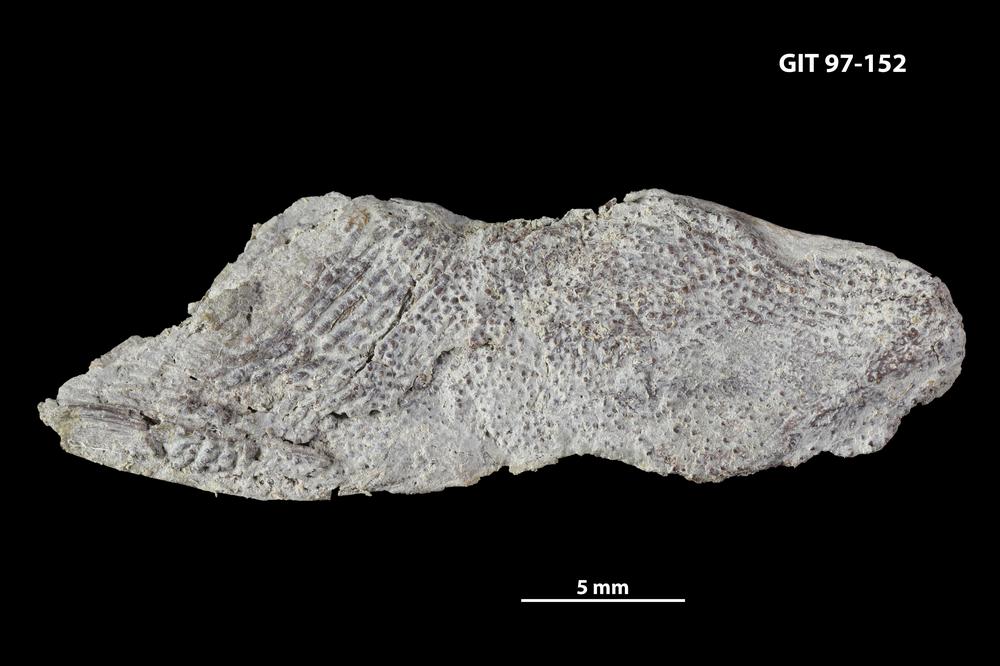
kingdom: Animalia
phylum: Chordata
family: Holonematidae
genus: Holonema
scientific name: Holonema
